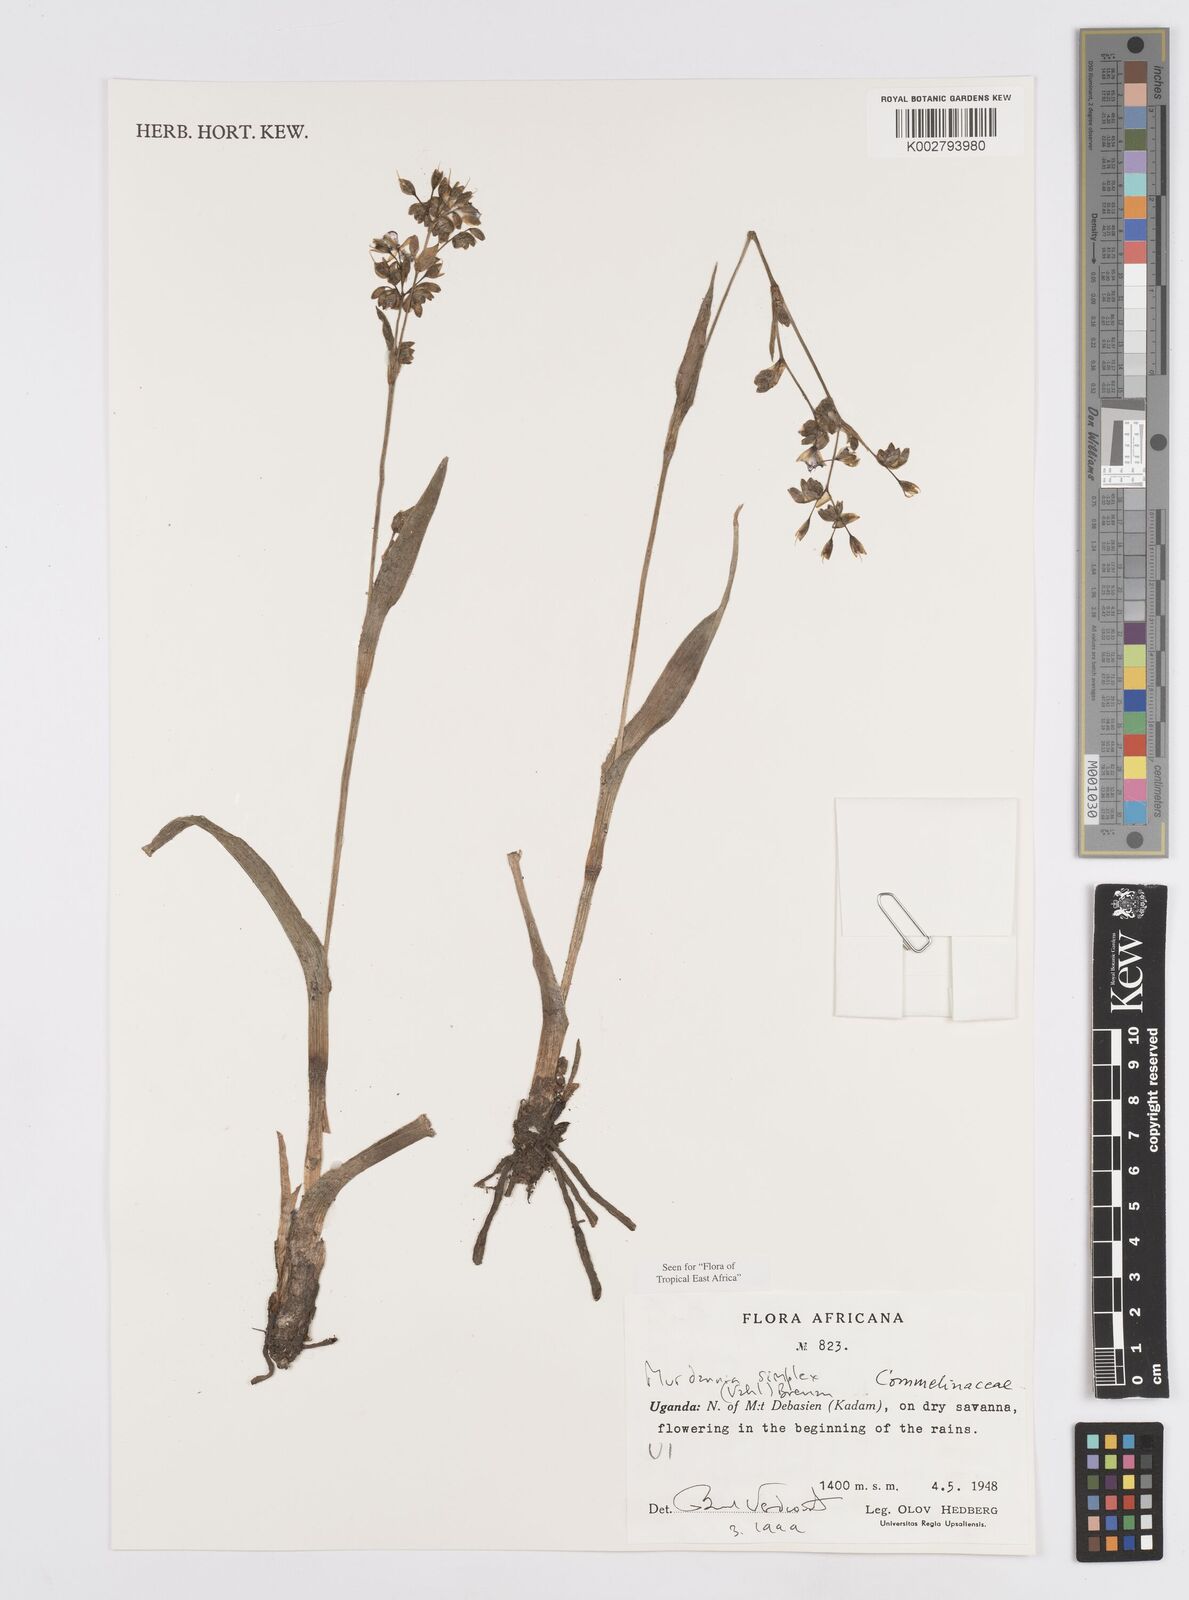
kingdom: Plantae
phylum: Tracheophyta
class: Liliopsida
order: Commelinales
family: Commelinaceae
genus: Murdannia
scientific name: Murdannia simplex
